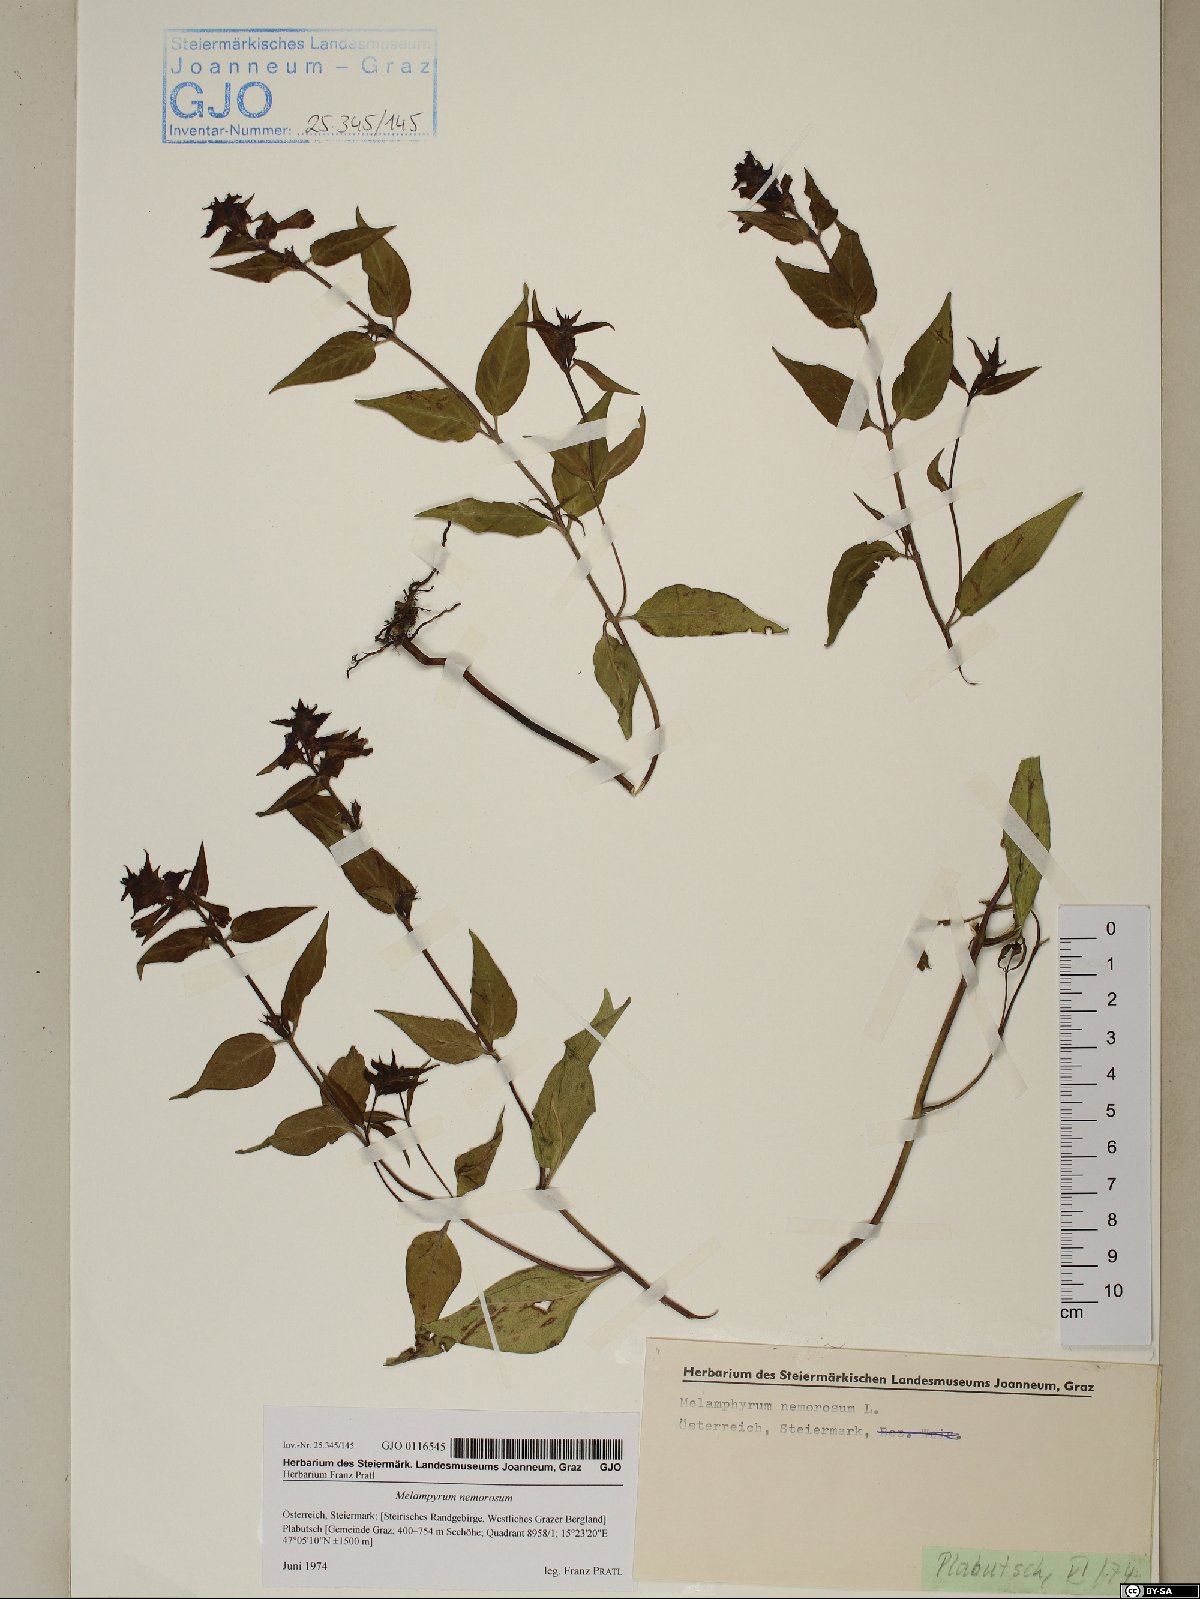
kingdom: Plantae
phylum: Tracheophyta
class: Magnoliopsida
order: Lamiales
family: Orobanchaceae
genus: Melampyrum
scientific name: Melampyrum nemorosum
